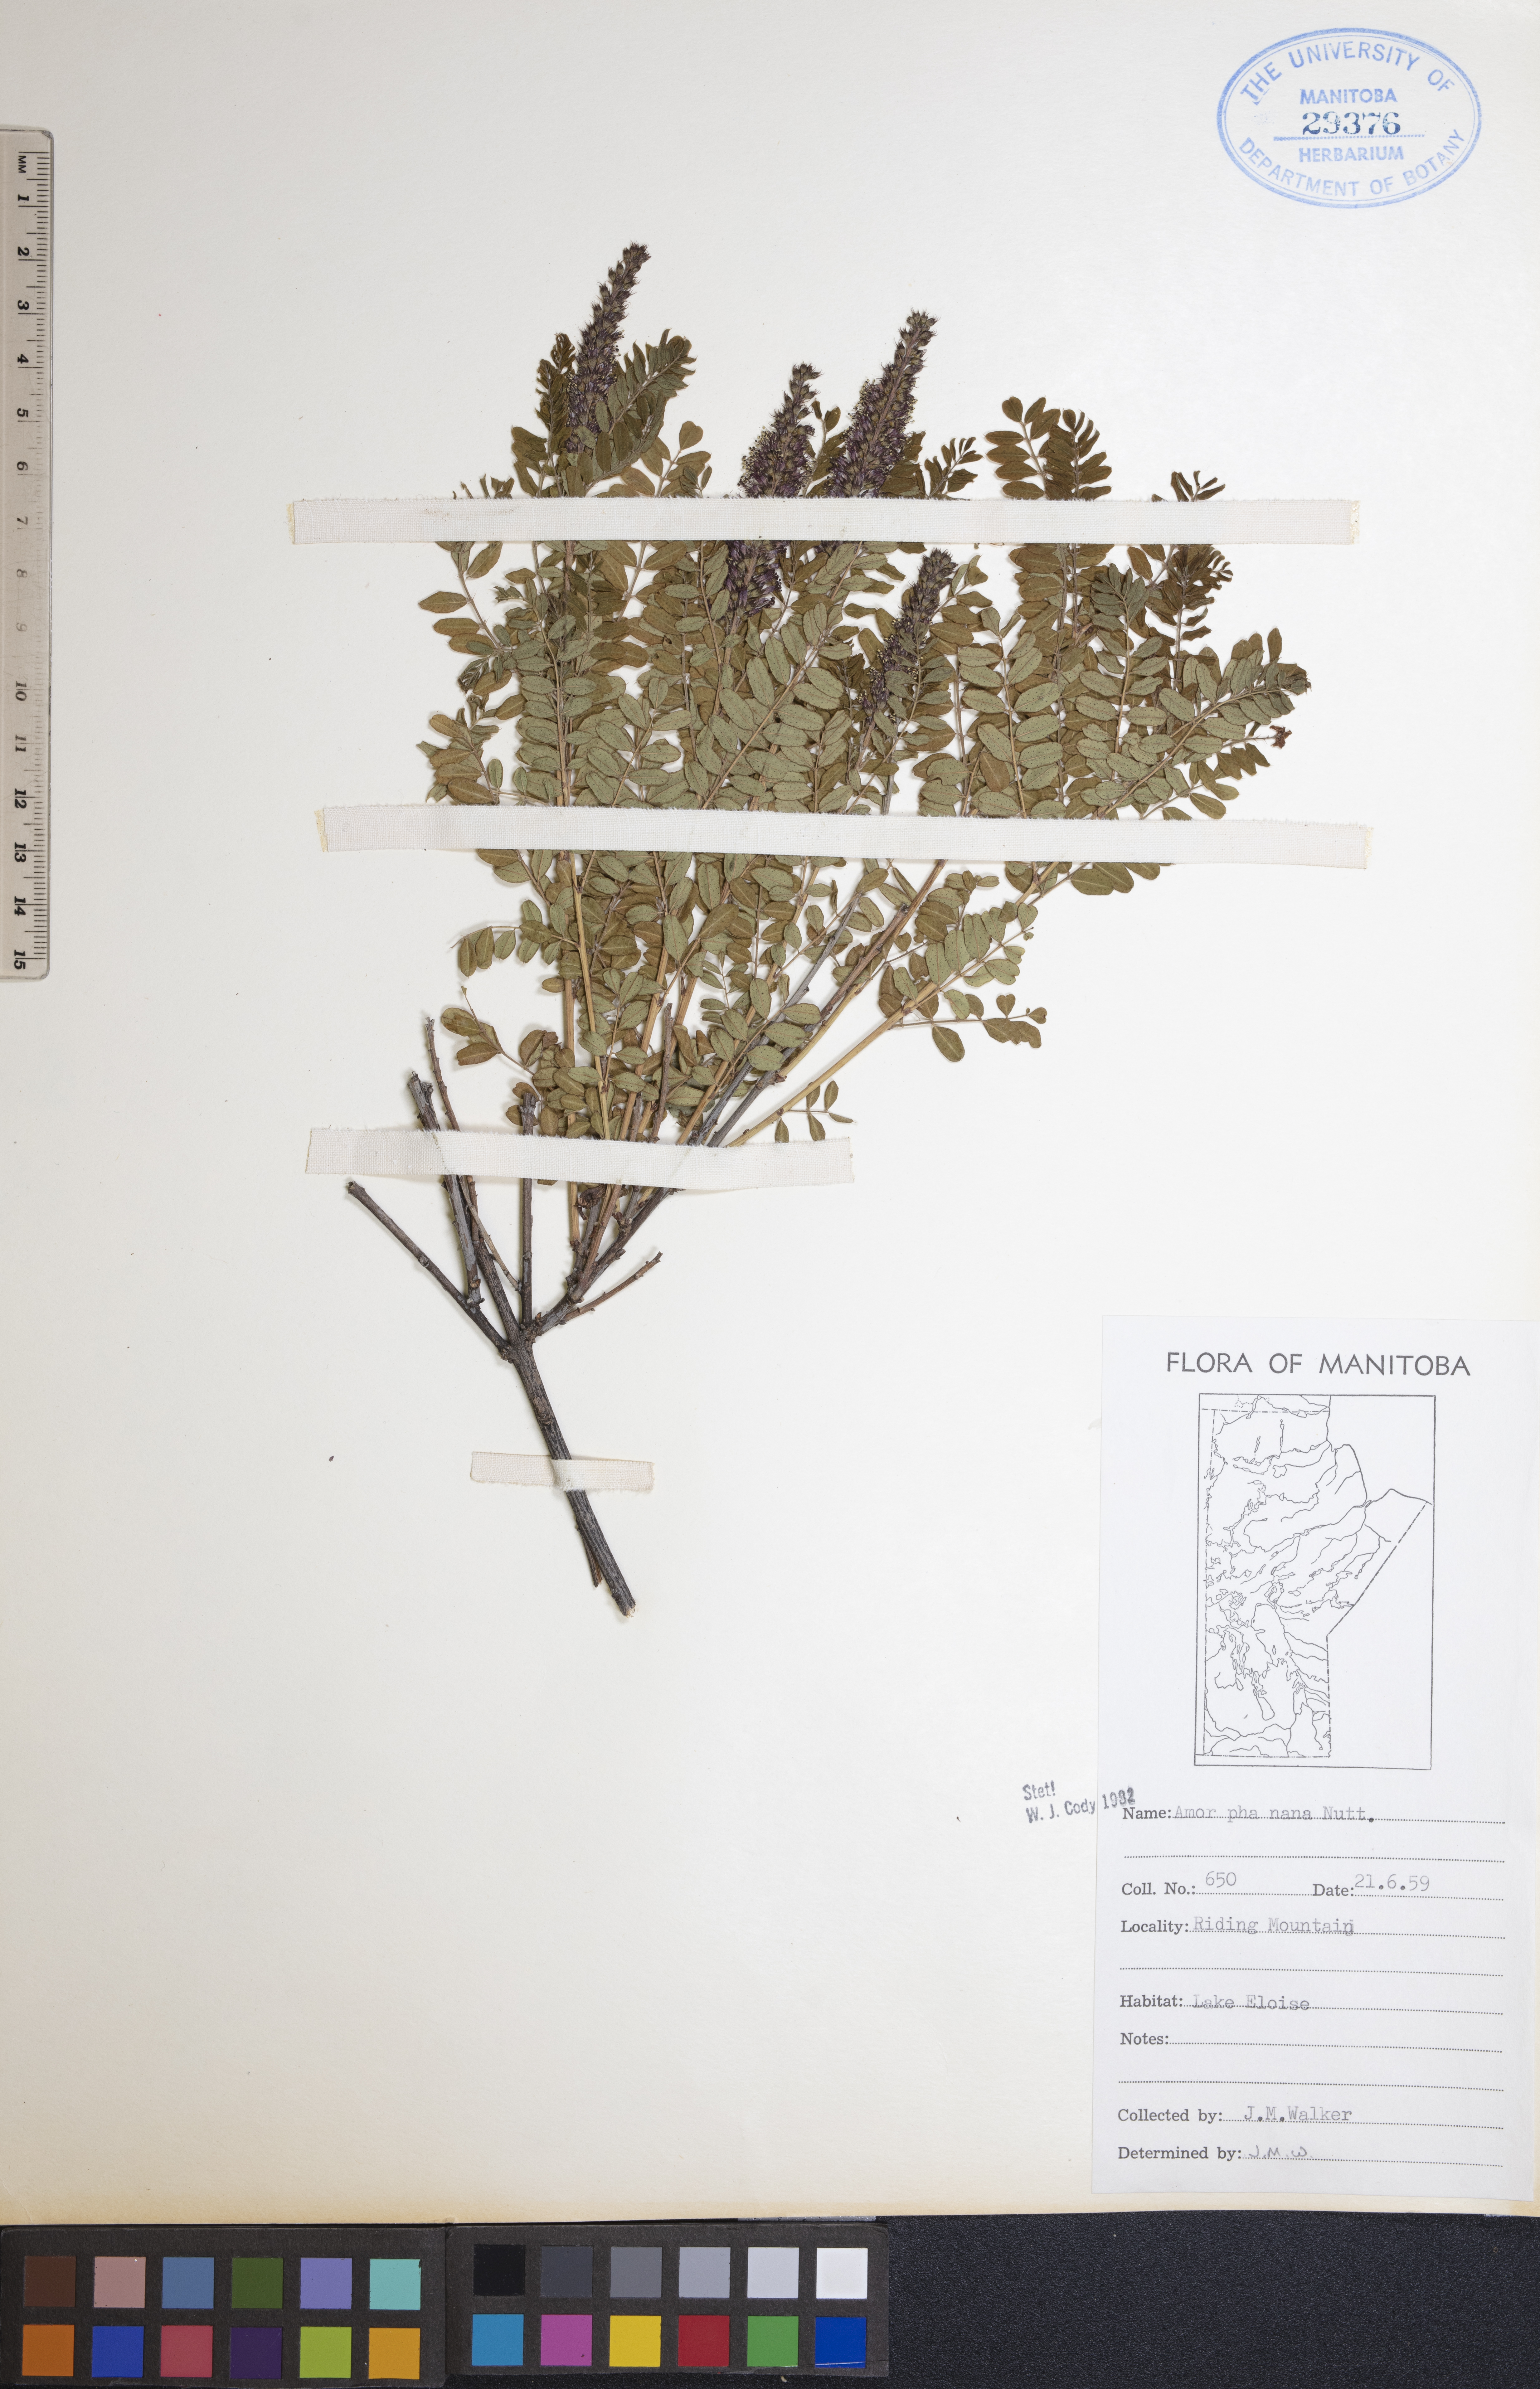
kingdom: Plantae
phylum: Tracheophyta
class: Magnoliopsida
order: Fabales
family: Fabaceae
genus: Amorpha
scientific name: Amorpha nana
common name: Fragrant false indigo
